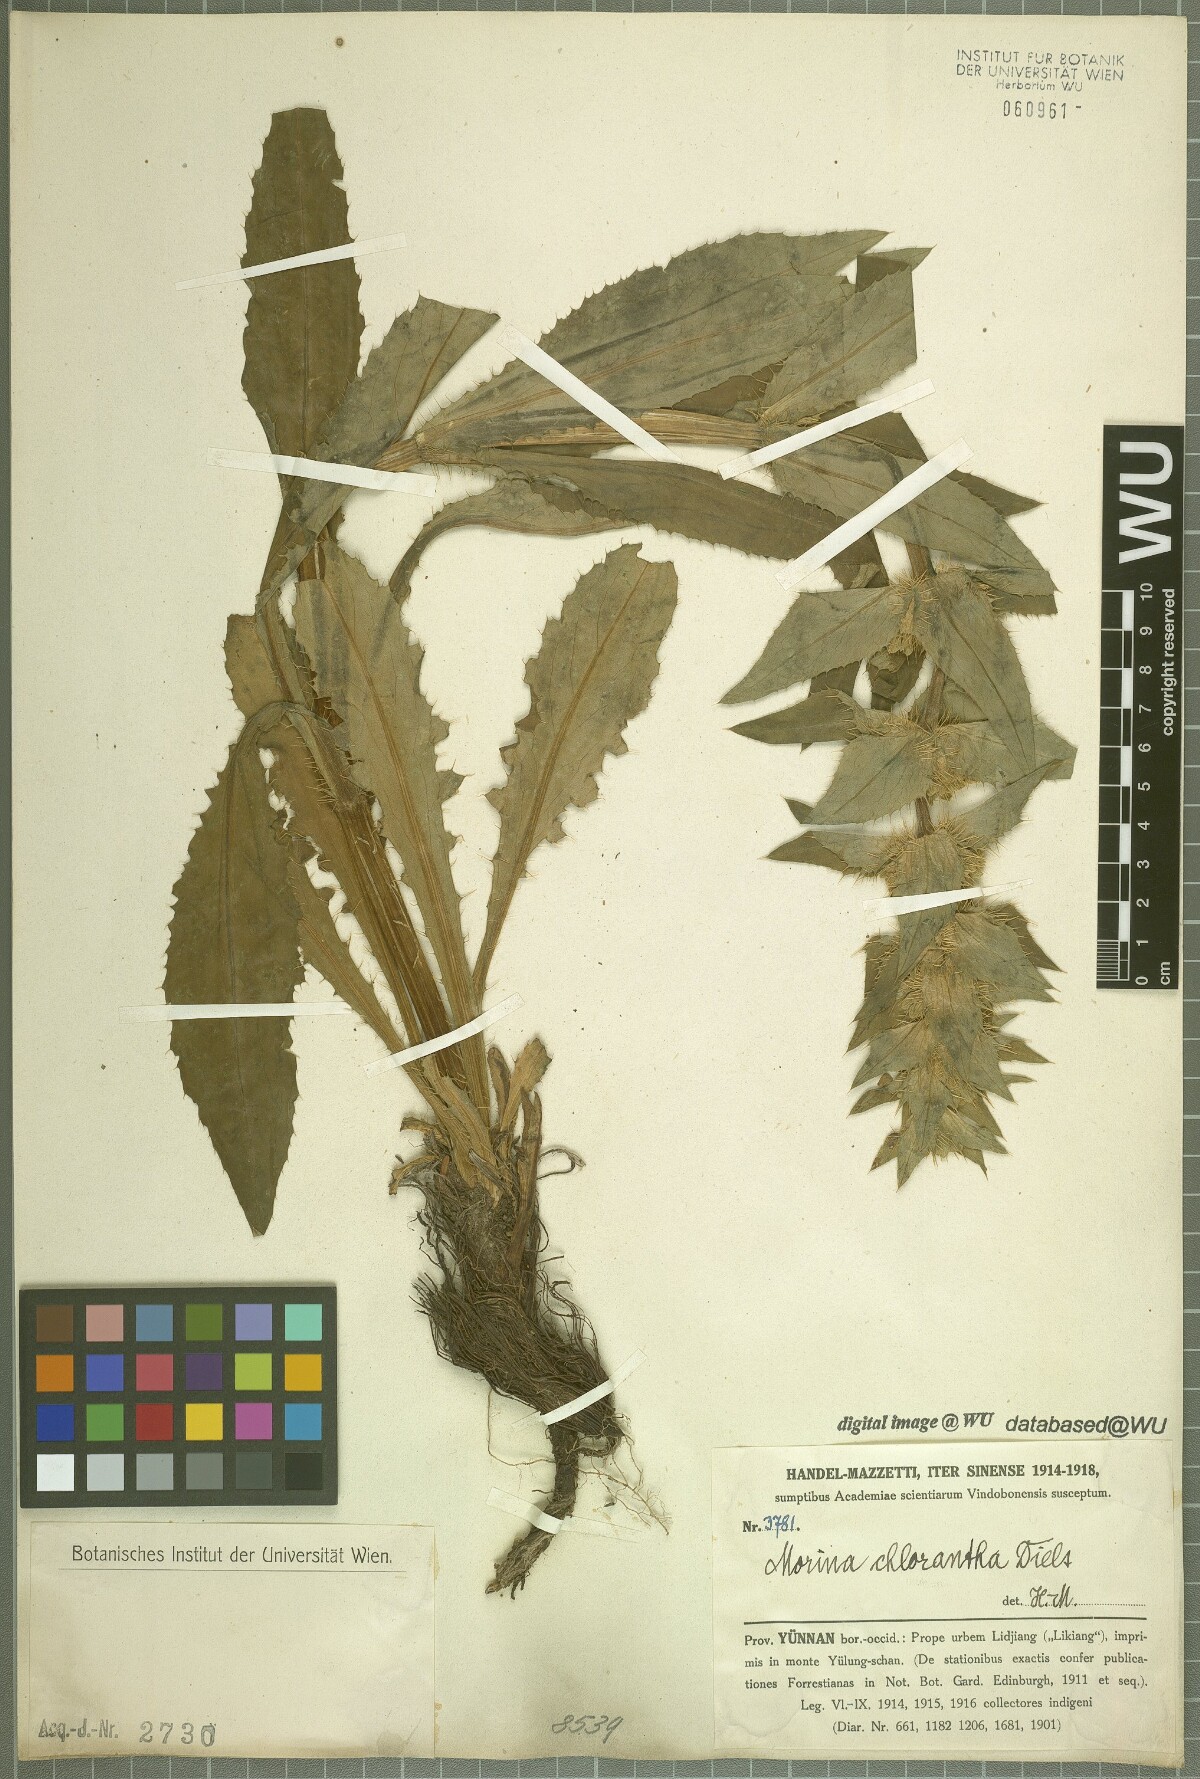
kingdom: Plantae
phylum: Tracheophyta
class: Magnoliopsida
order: Dipsacales
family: Caprifoliaceae
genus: Cryptothladia
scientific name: Cryptothladia chlorantha
